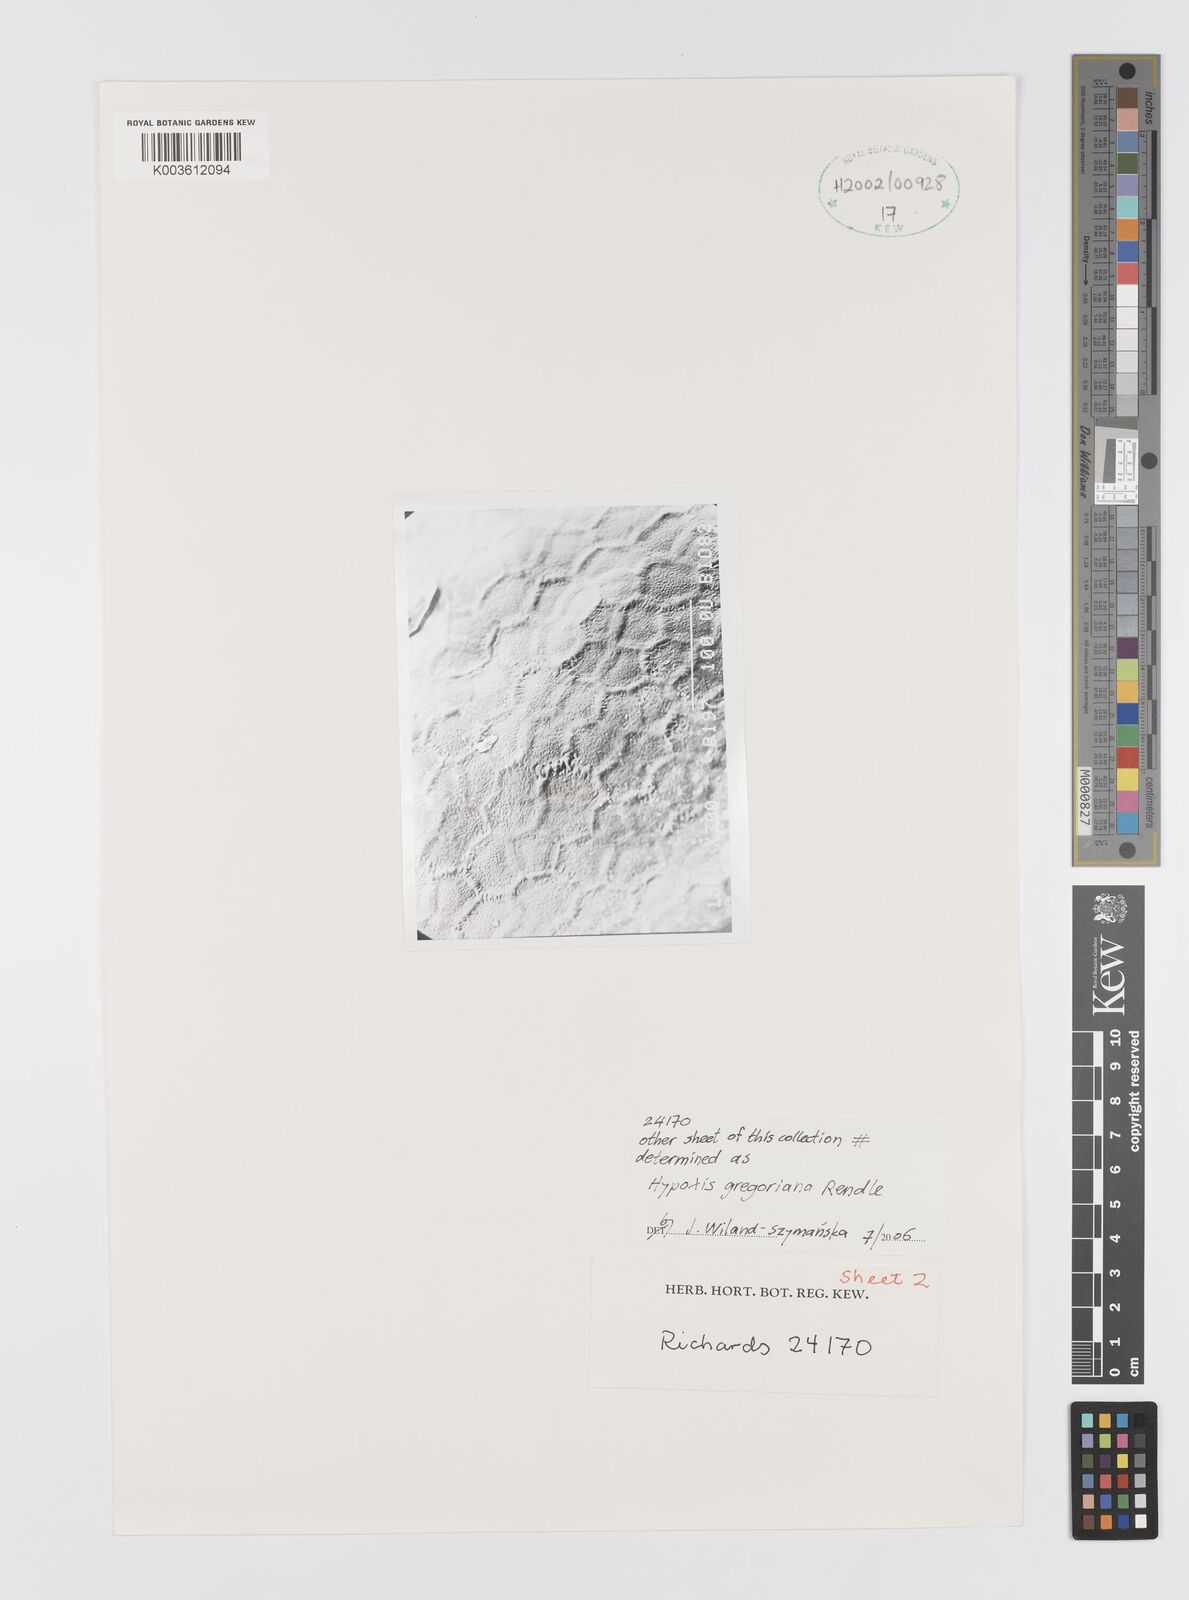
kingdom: Plantae
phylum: Tracheophyta
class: Liliopsida
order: Asparagales
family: Hypoxidaceae
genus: Hypoxis
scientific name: Hypoxis gregoriana
